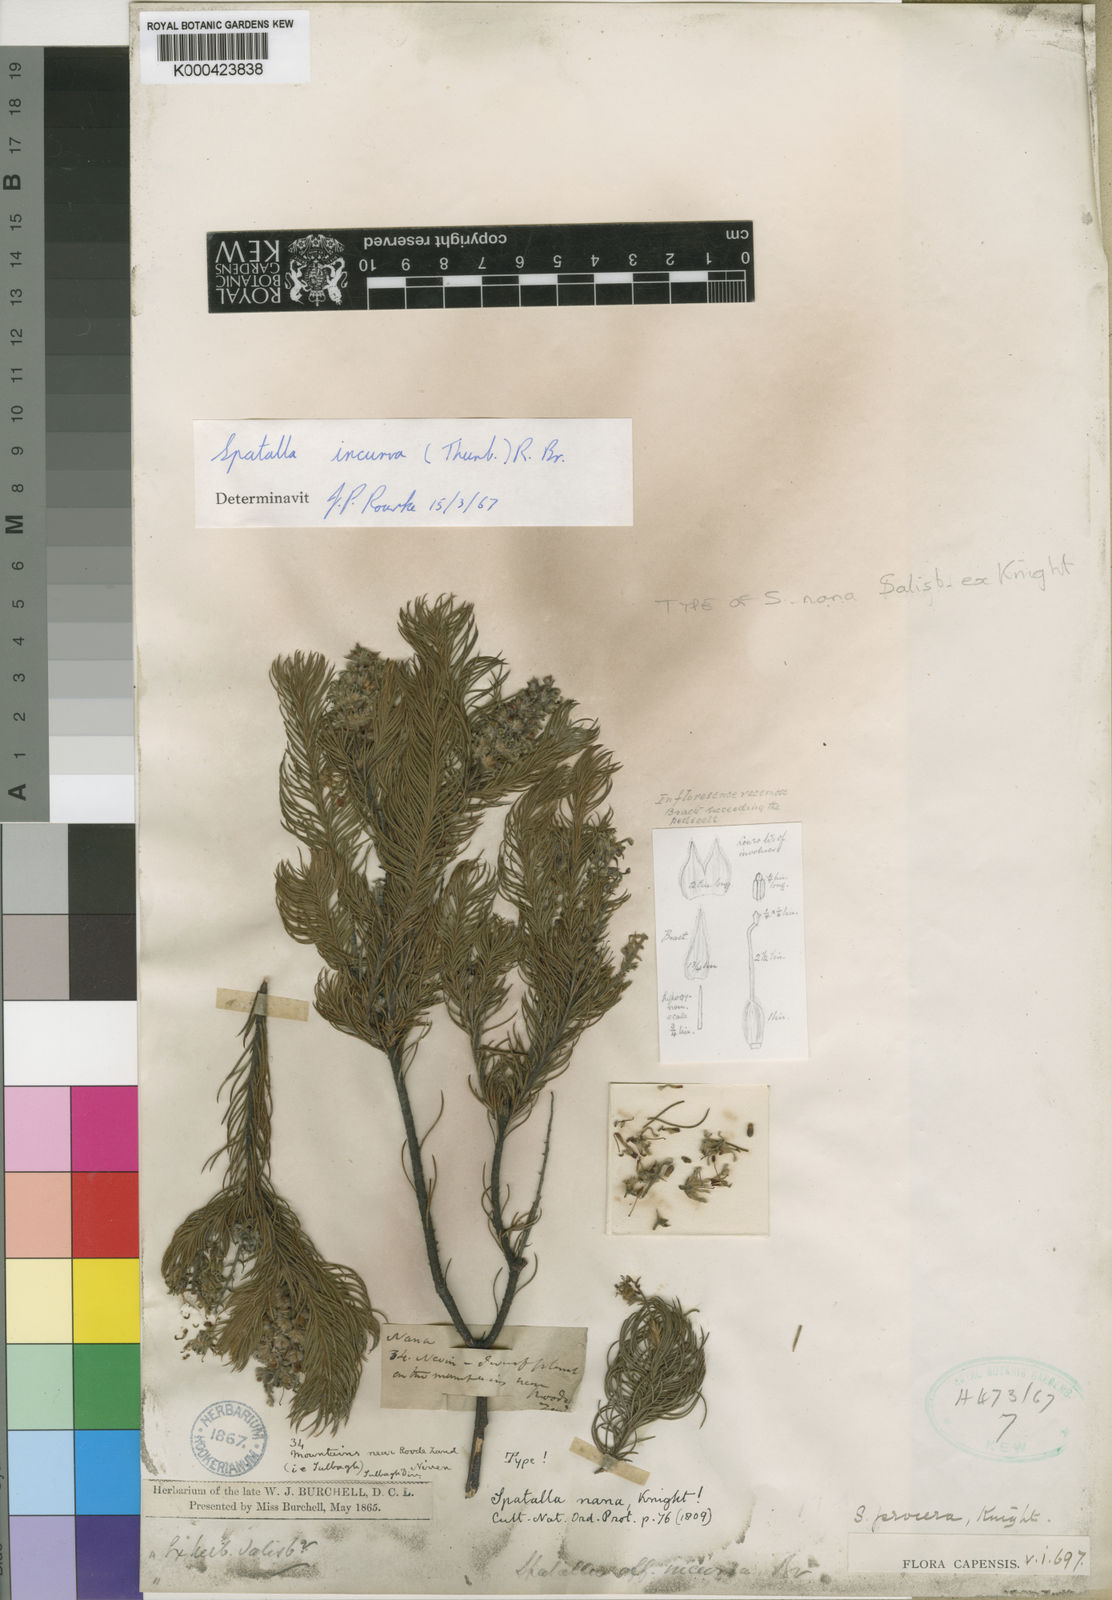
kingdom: Plantae
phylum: Tracheophyta
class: Magnoliopsida
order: Proteales
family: Proteaceae
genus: Spatalla
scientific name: Spatalla incurva
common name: Swan-head spoon
